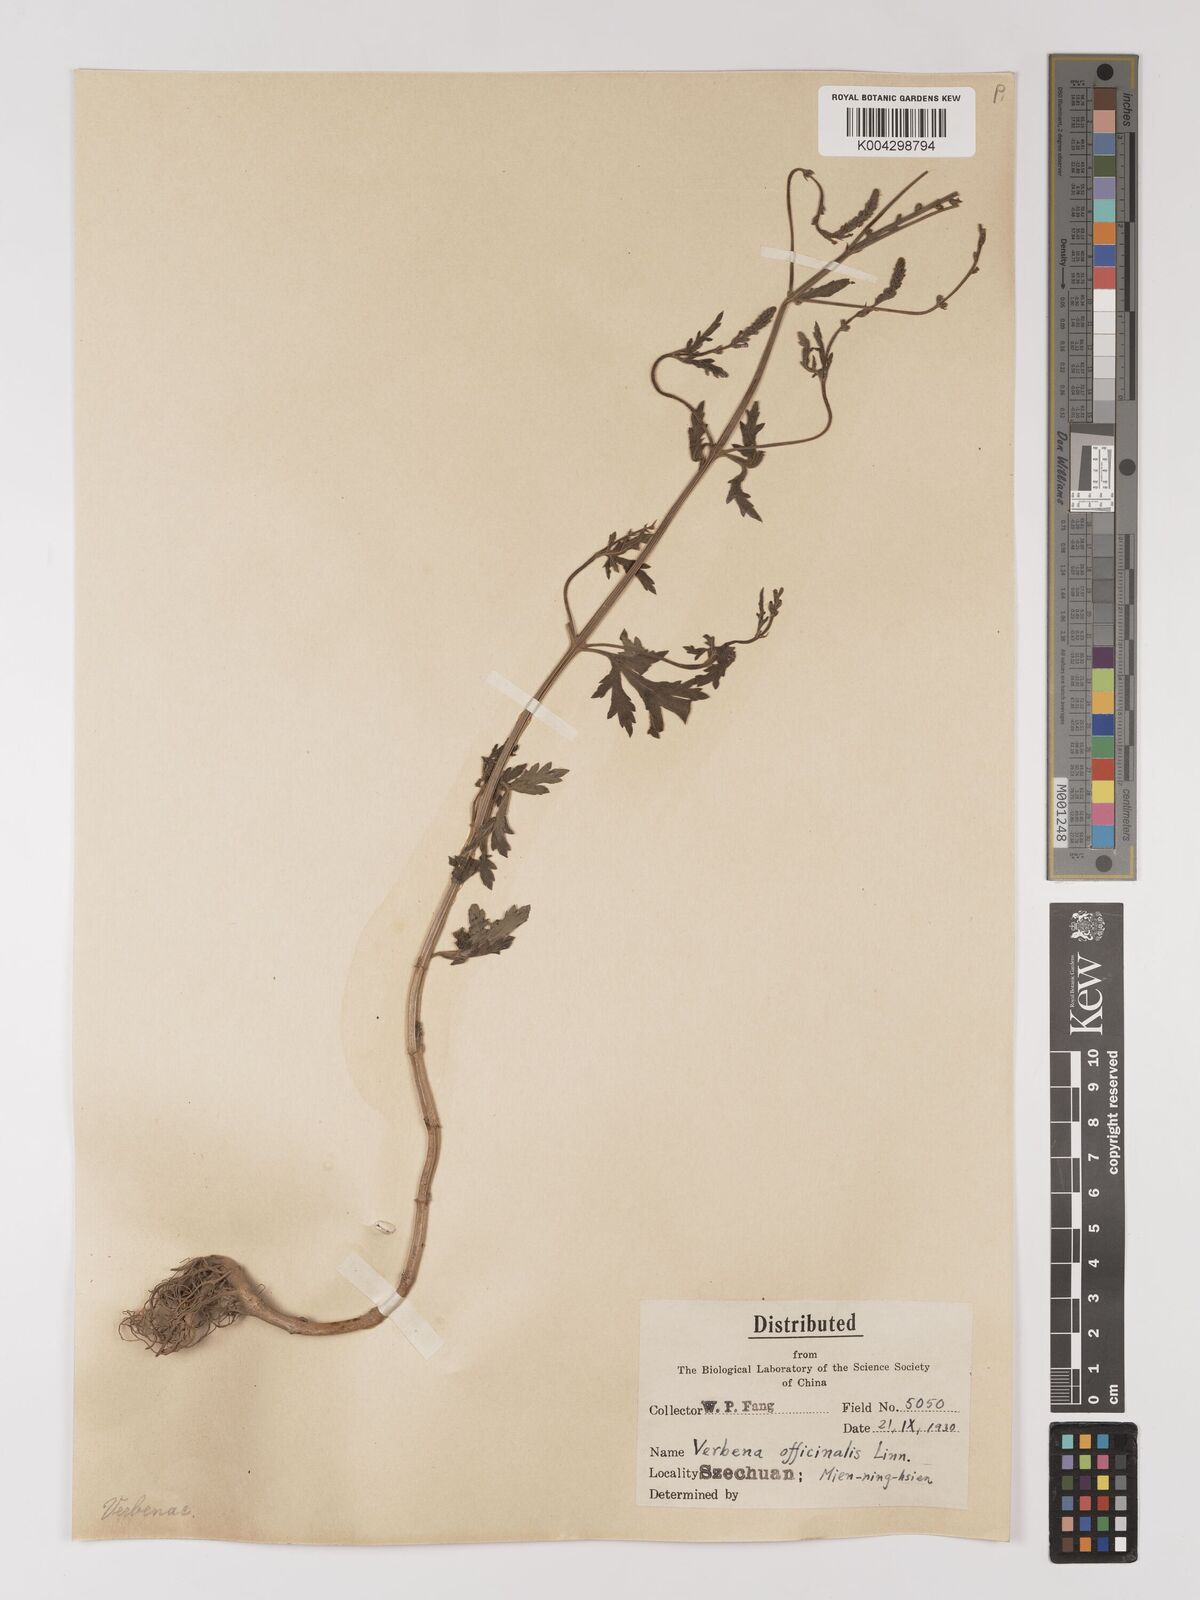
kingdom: Plantae
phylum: Tracheophyta
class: Magnoliopsida
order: Lamiales
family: Verbenaceae
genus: Verbena
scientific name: Verbena officinalis
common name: Vervain
